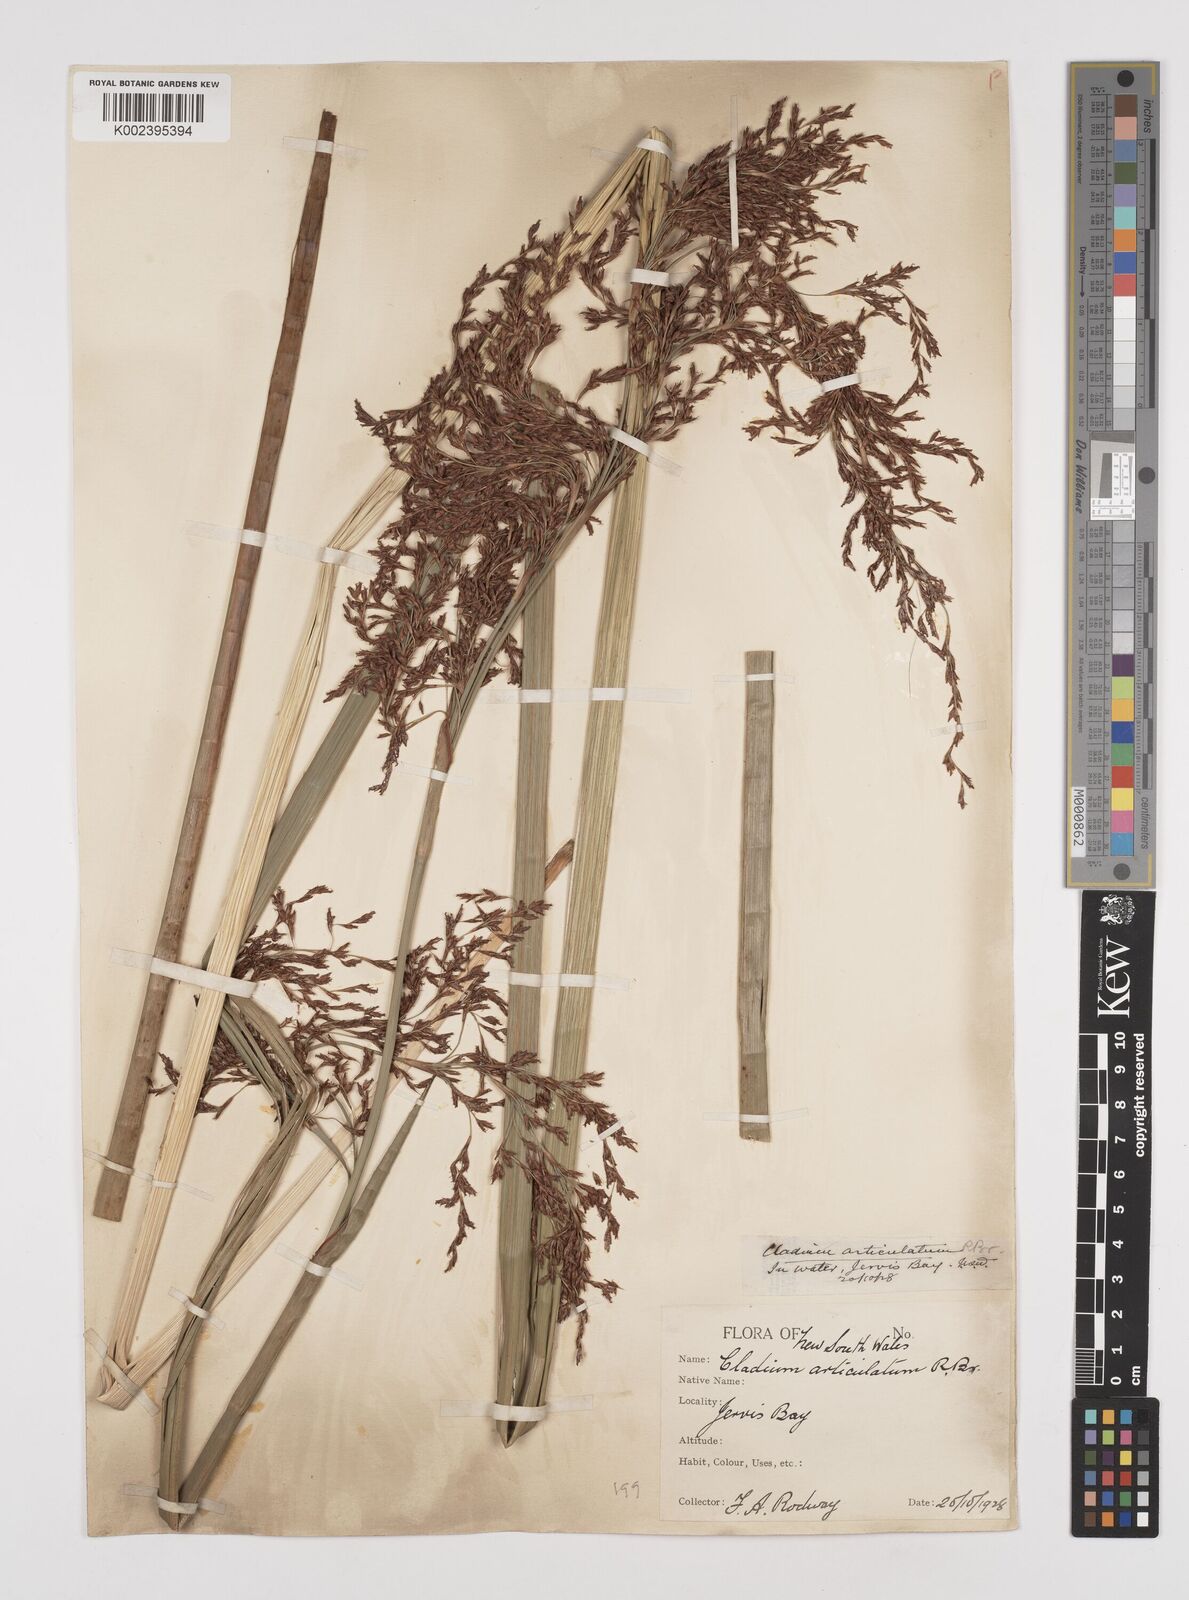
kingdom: Plantae
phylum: Tracheophyta
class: Liliopsida
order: Poales
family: Cyperaceae
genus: Machaerina
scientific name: Machaerina articulata
